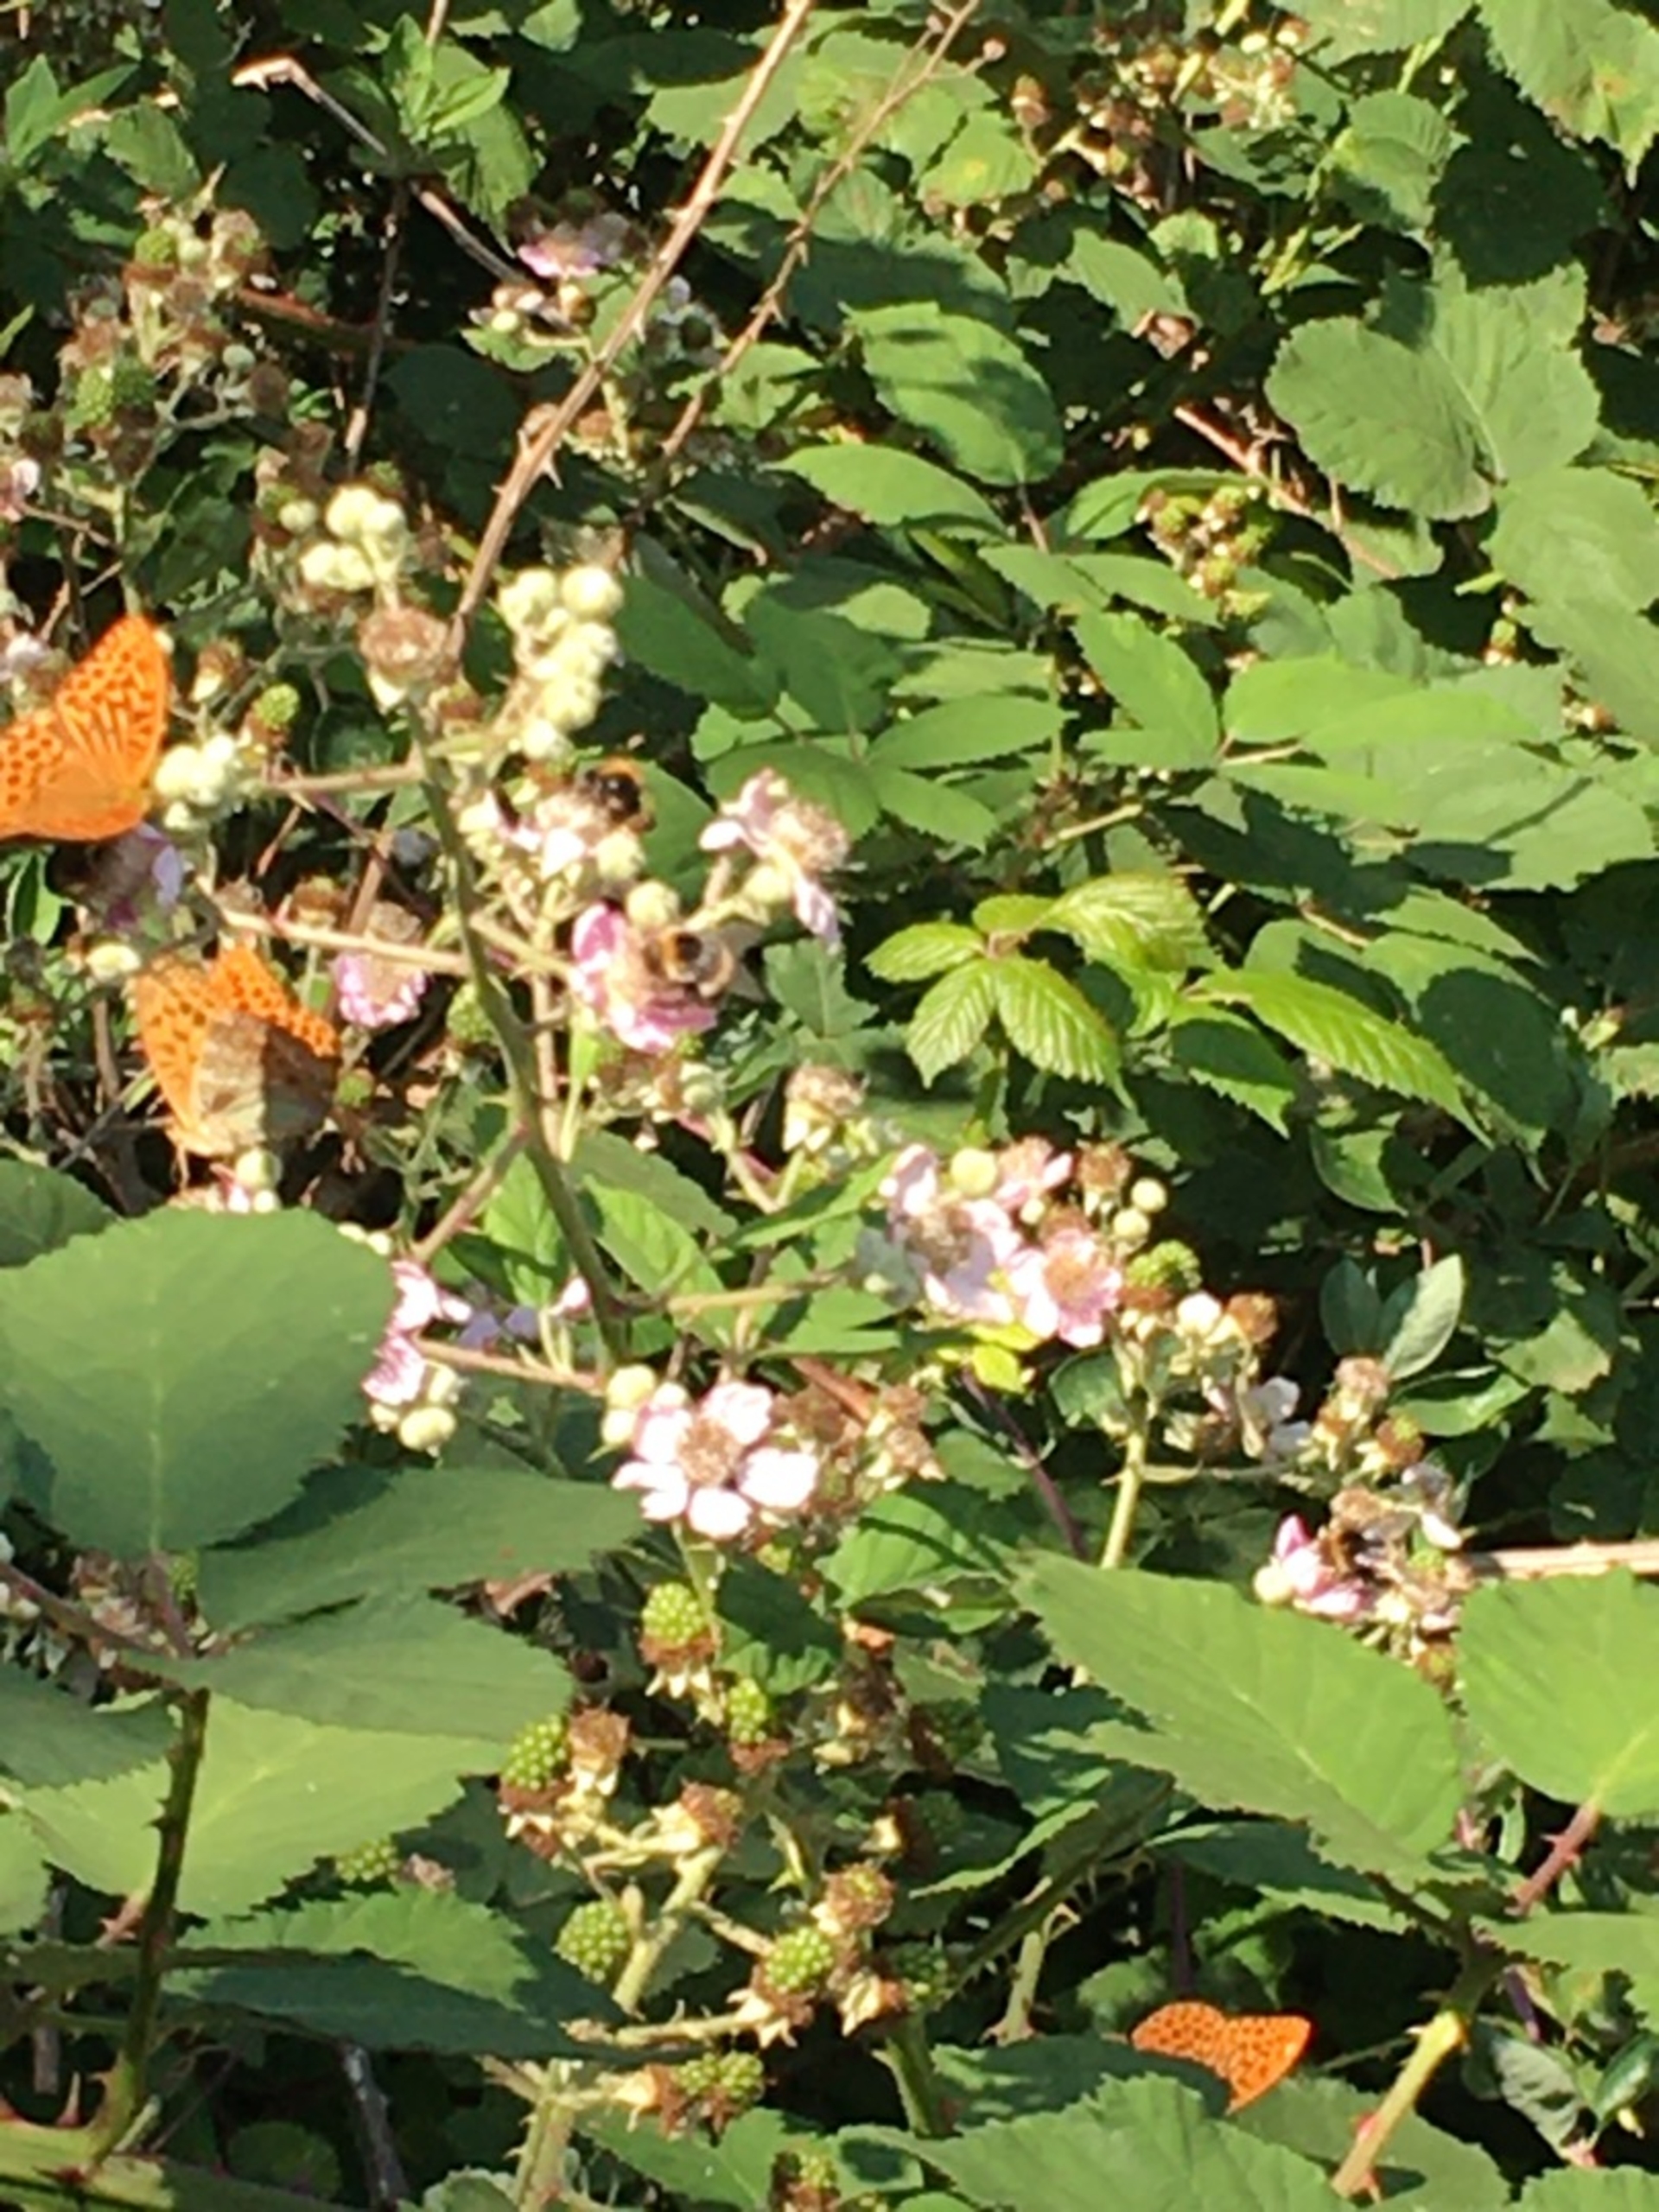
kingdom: Animalia
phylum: Arthropoda
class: Insecta
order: Lepidoptera
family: Nymphalidae
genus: Argynnis
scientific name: Argynnis paphia
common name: Kejserkåbe
